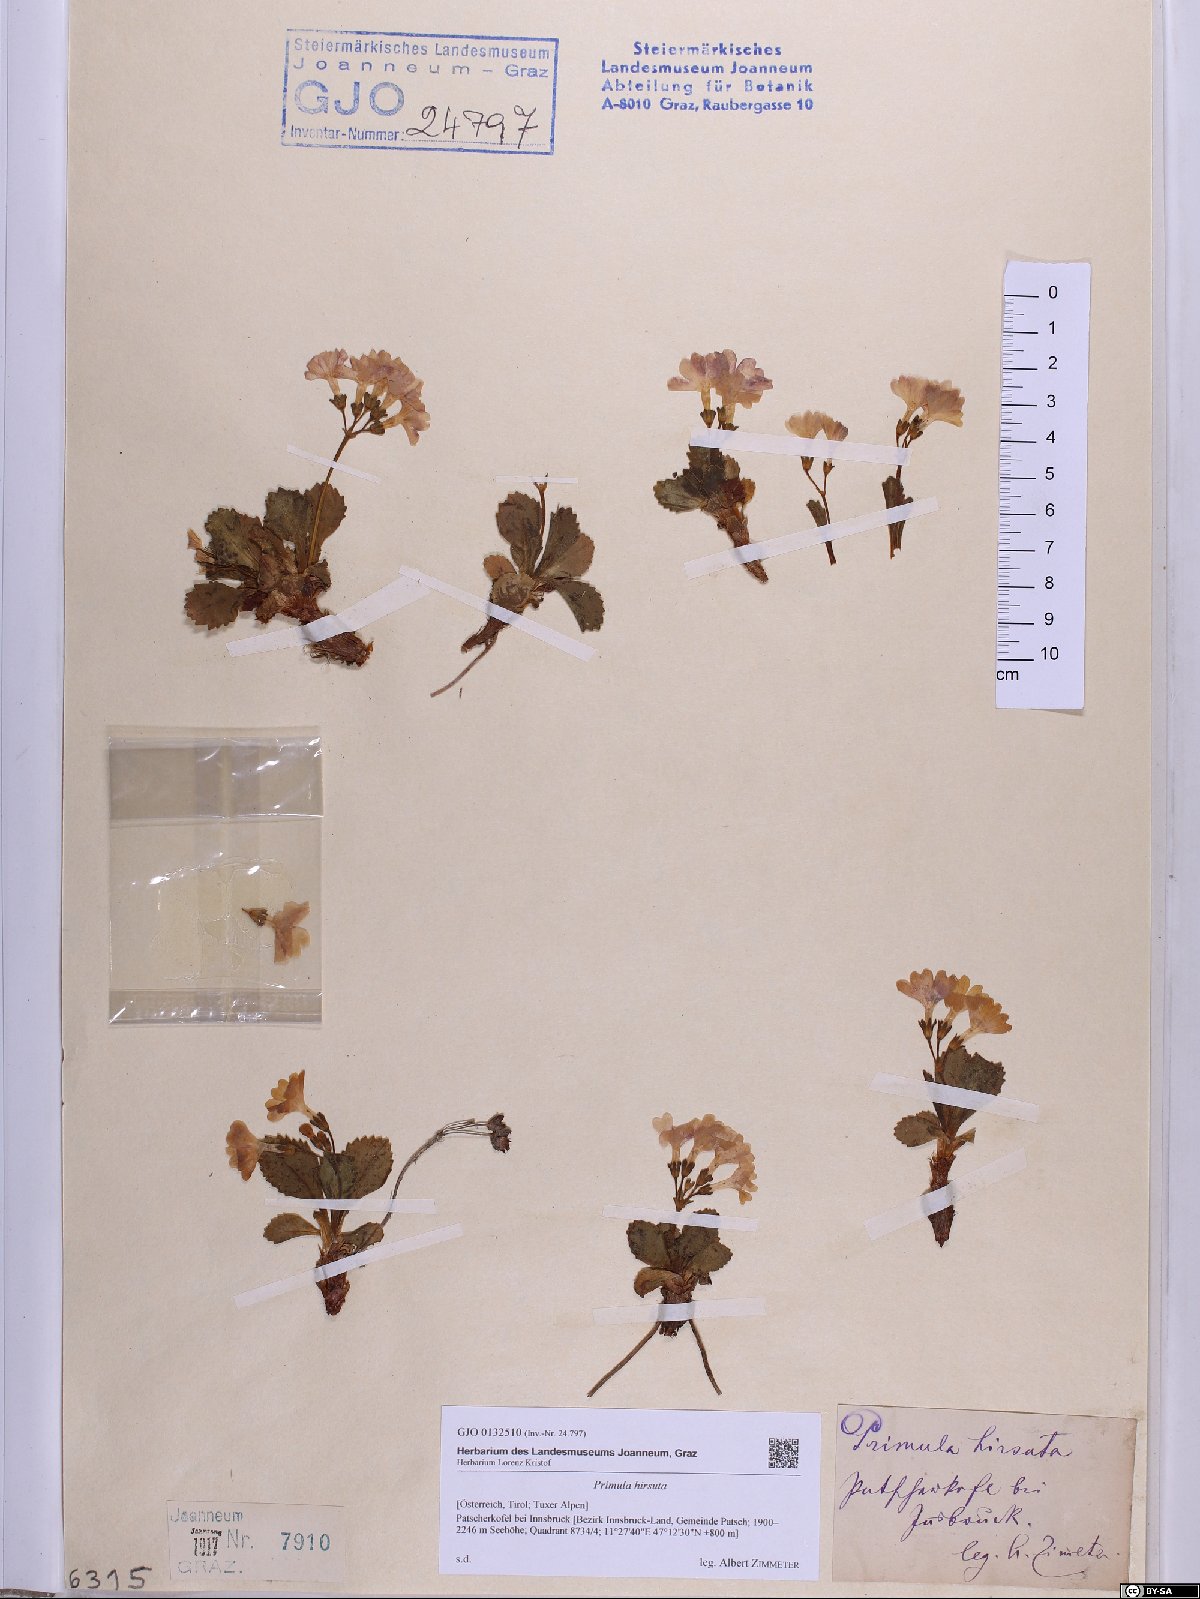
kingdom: Plantae
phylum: Tracheophyta
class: Magnoliopsida
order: Ericales
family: Primulaceae
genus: Primula
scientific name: Primula hirsuta
